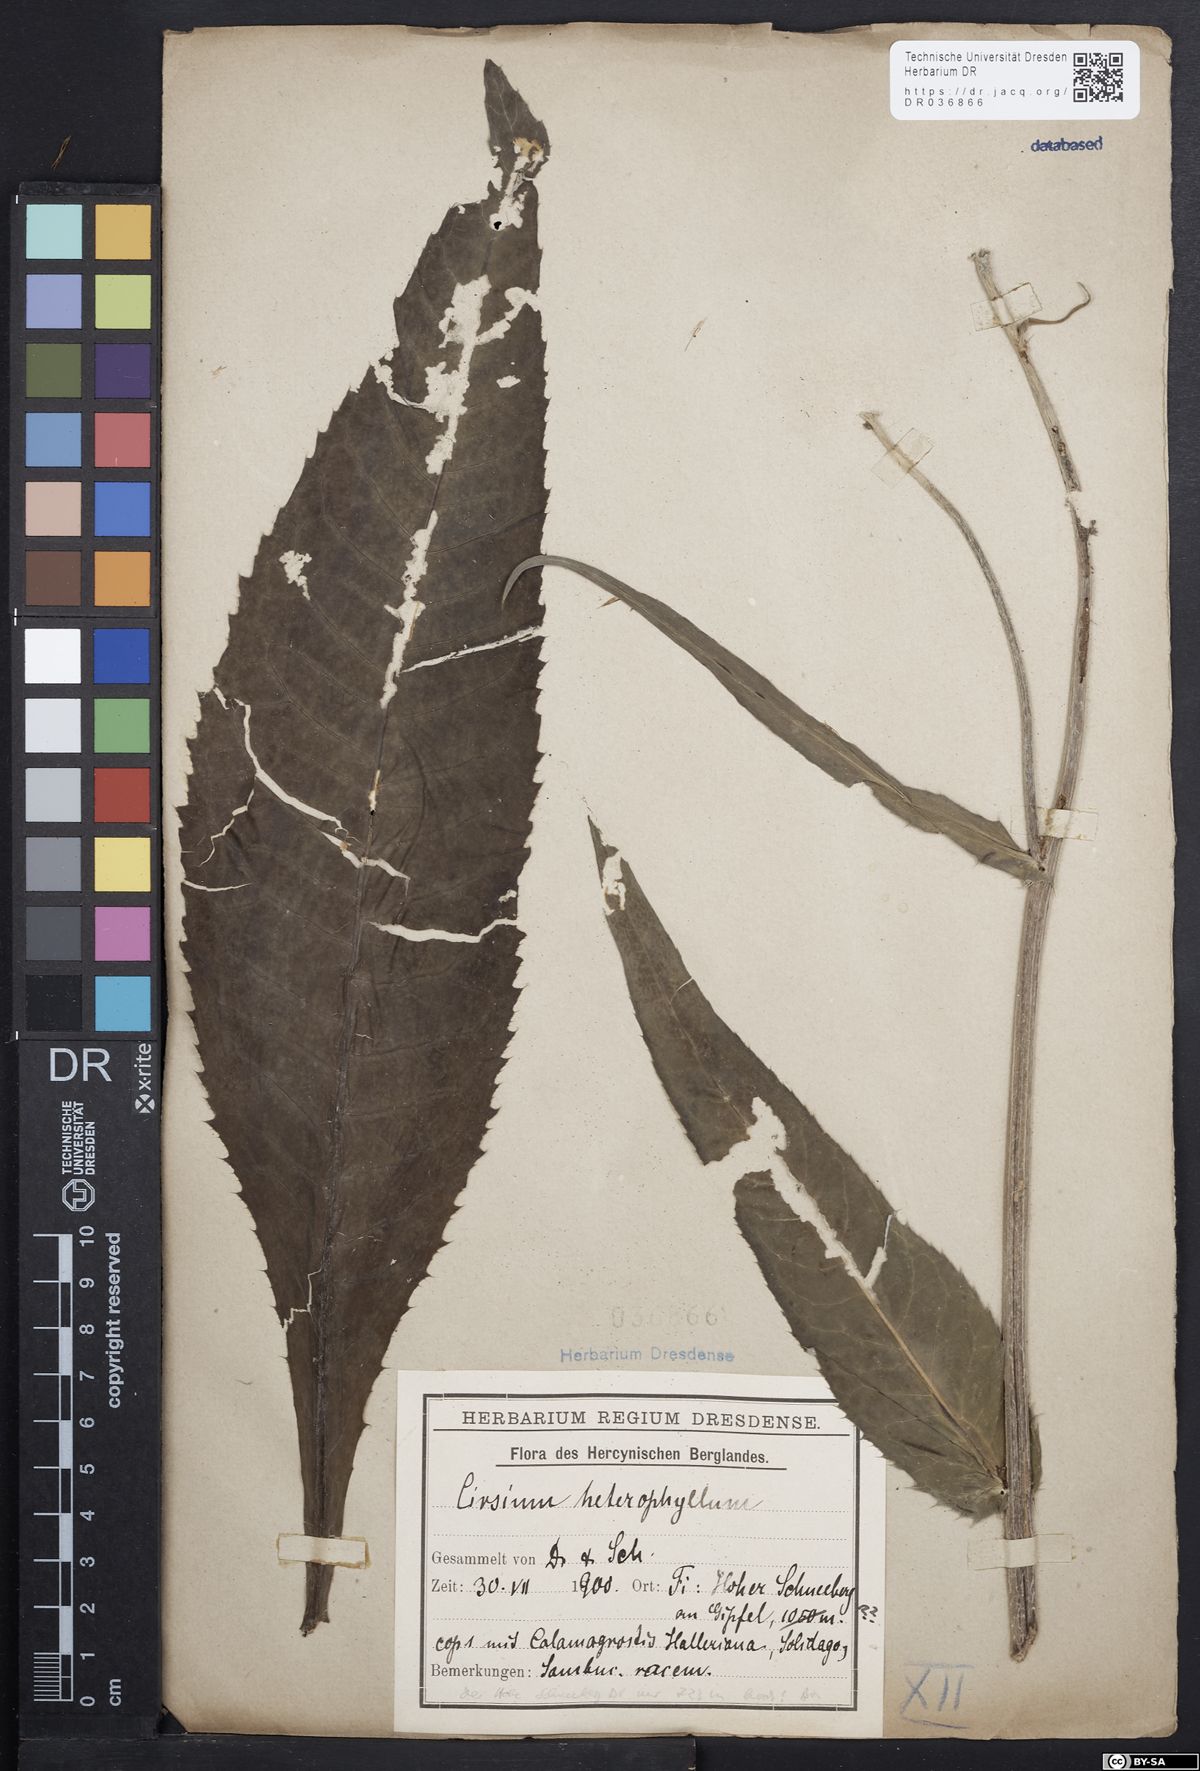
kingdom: Plantae
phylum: Tracheophyta
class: Magnoliopsida
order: Asterales
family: Asteraceae
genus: Cirsium
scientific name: Cirsium helenioides
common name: Melancholy thistle
